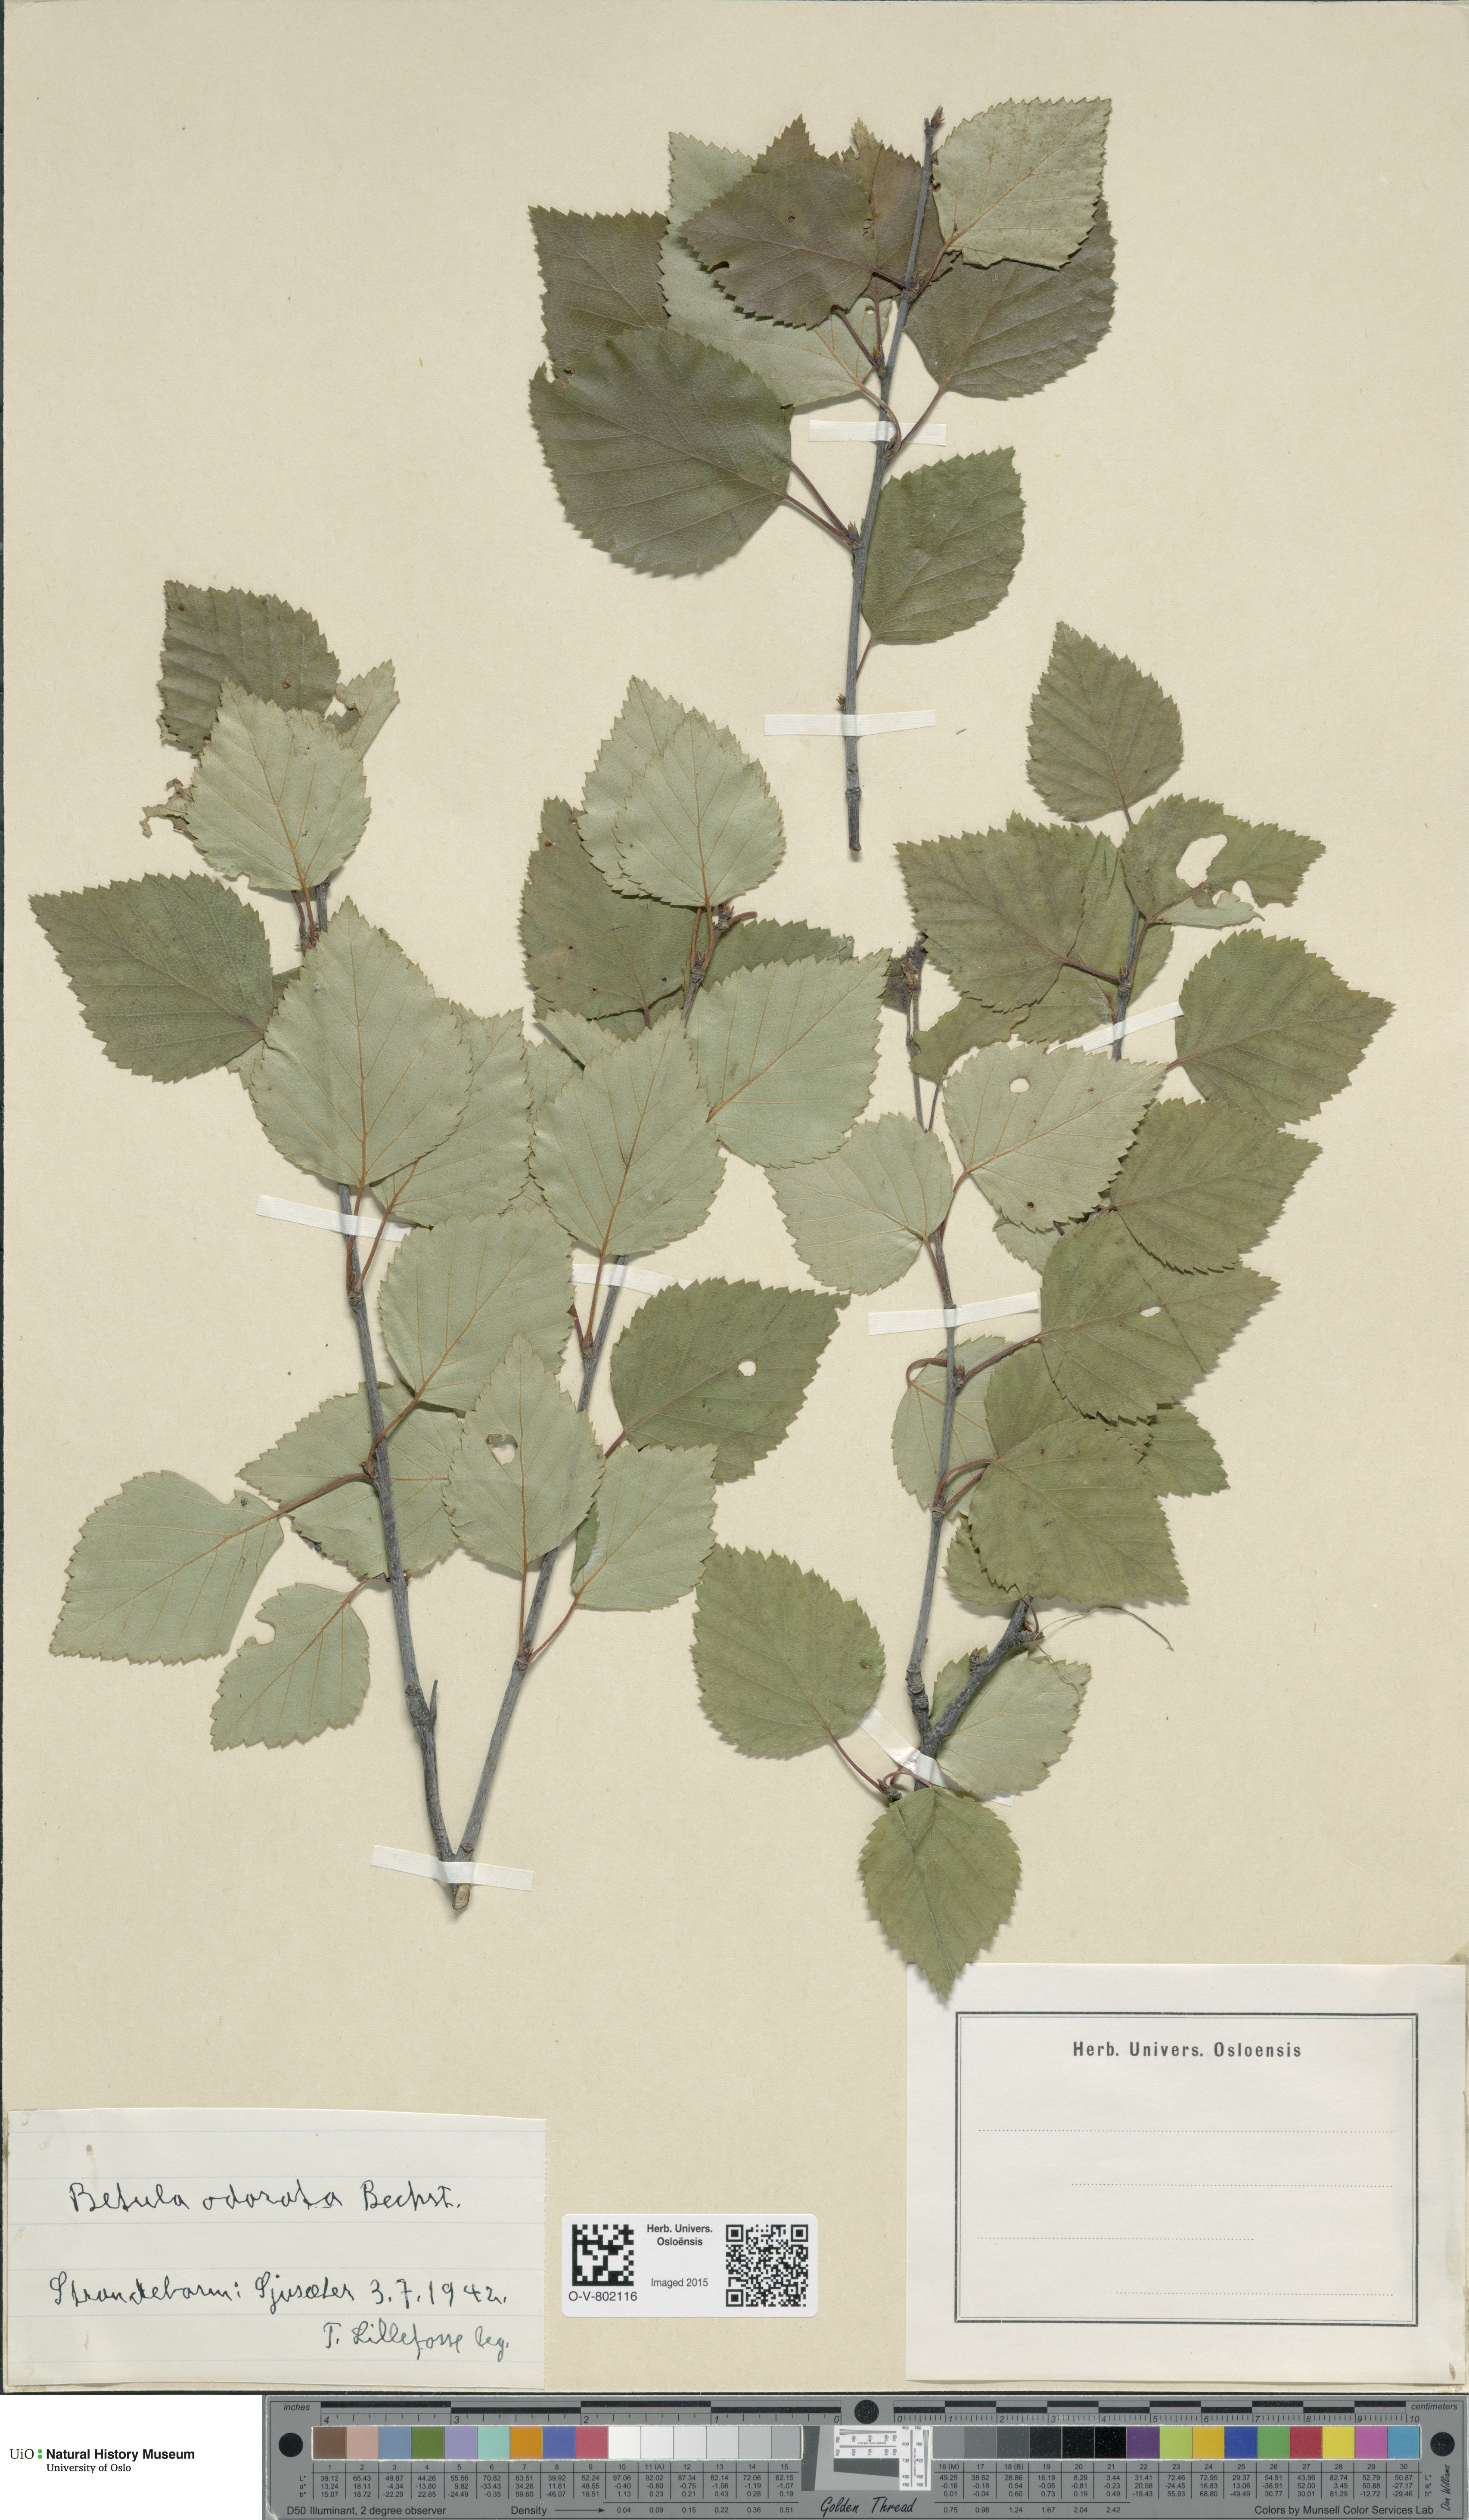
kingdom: Plantae
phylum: Tracheophyta
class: Magnoliopsida
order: Fagales
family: Betulaceae
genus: Betula
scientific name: Betula pubescens
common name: Downy birch
